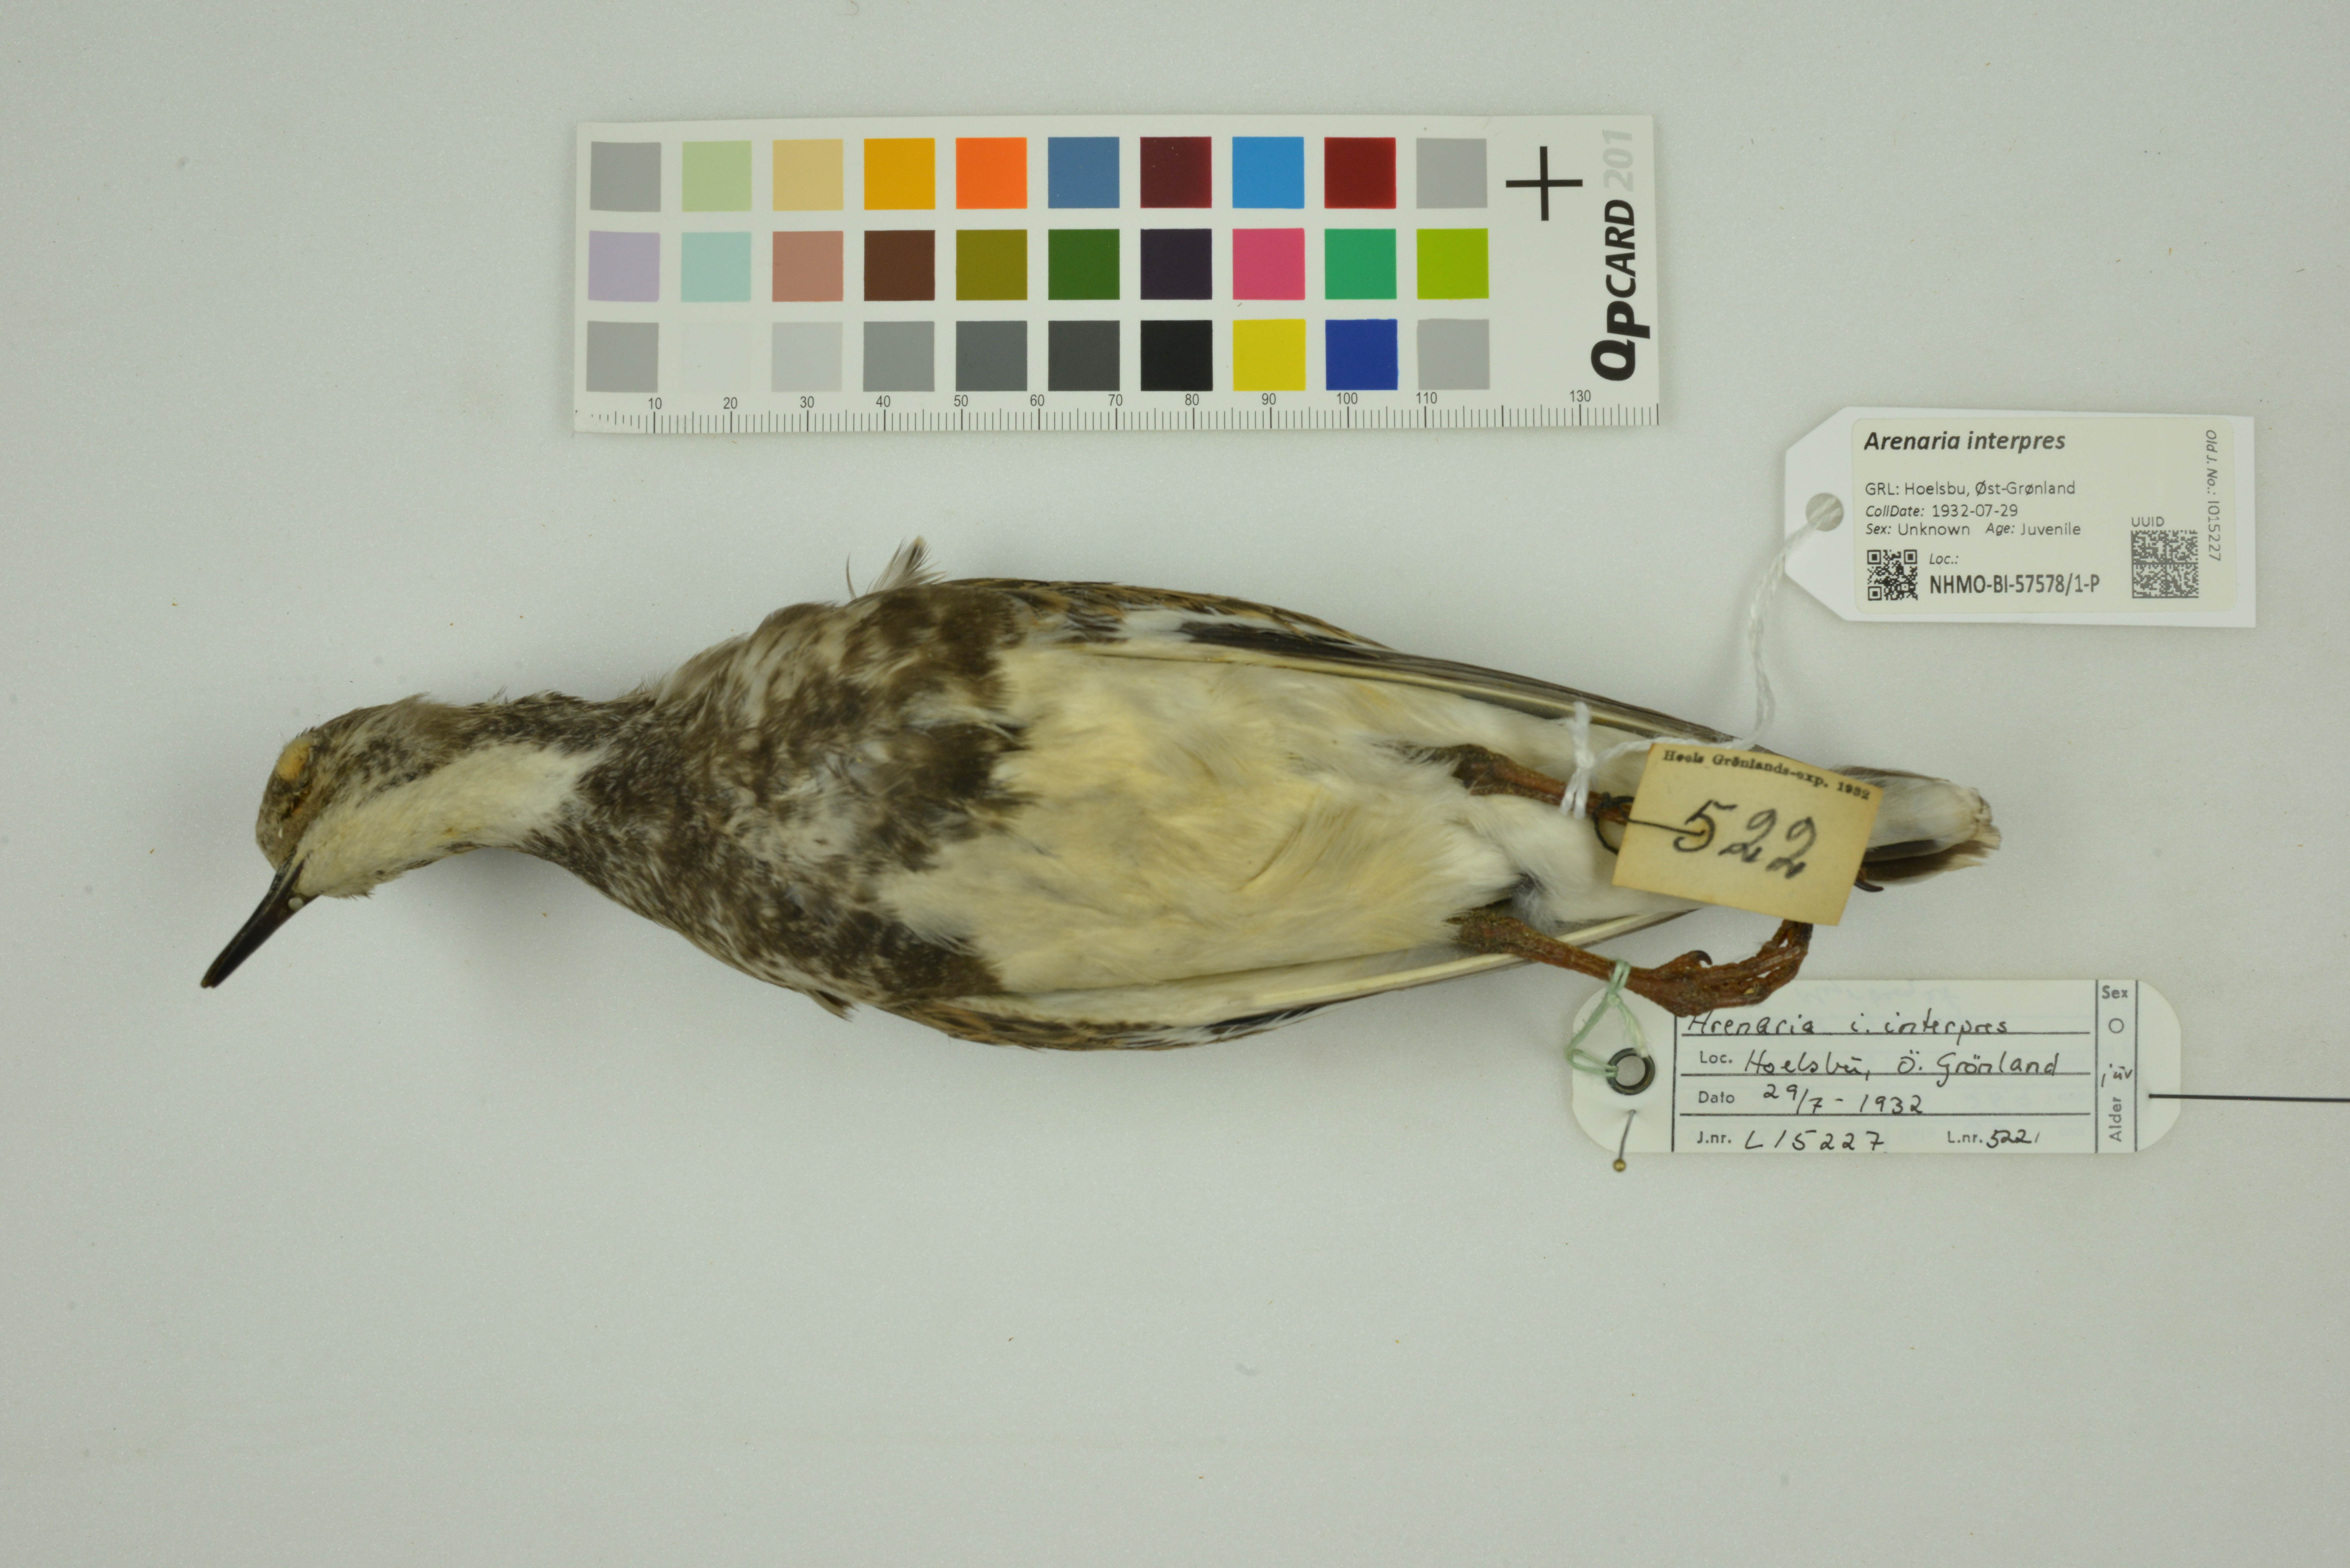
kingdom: Animalia
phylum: Chordata
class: Aves
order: Charadriiformes
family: Scolopacidae
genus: Arenaria
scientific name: Arenaria interpres
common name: Ruddy turnstone
